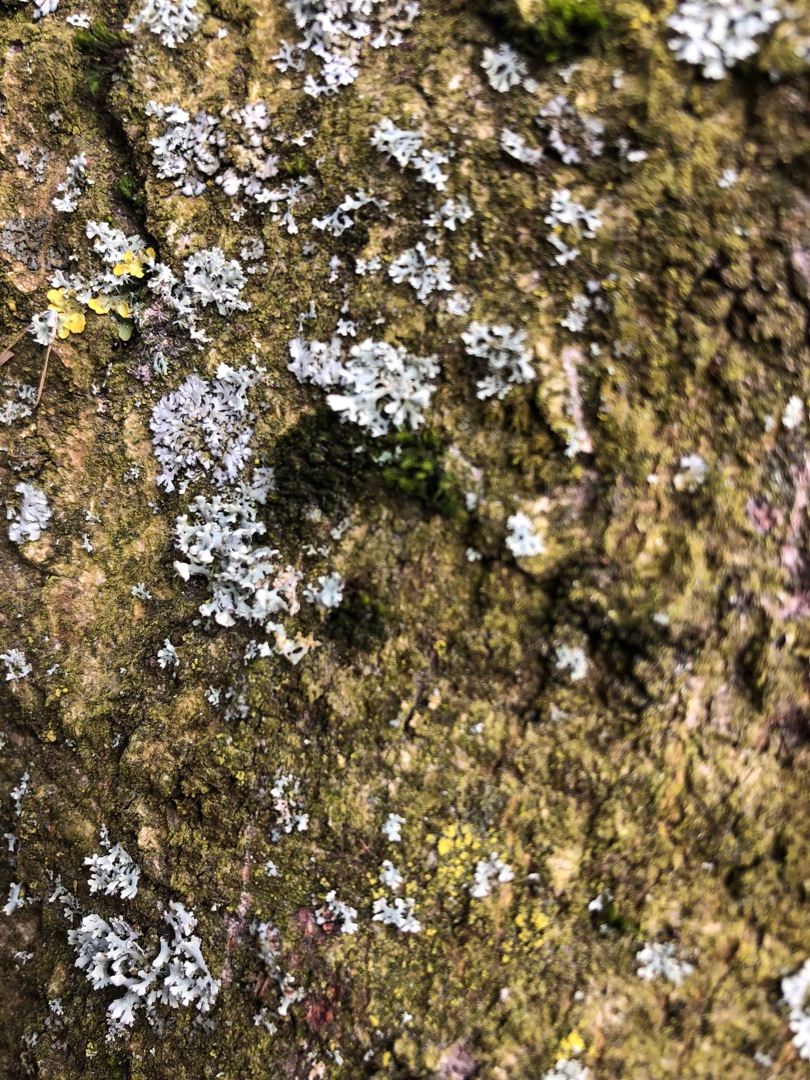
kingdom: Fungi
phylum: Ascomycota
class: Lecanoromycetes
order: Caliciales
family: Physciaceae
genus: Physcia
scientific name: Physcia tenella
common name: Spæd rosetlav
